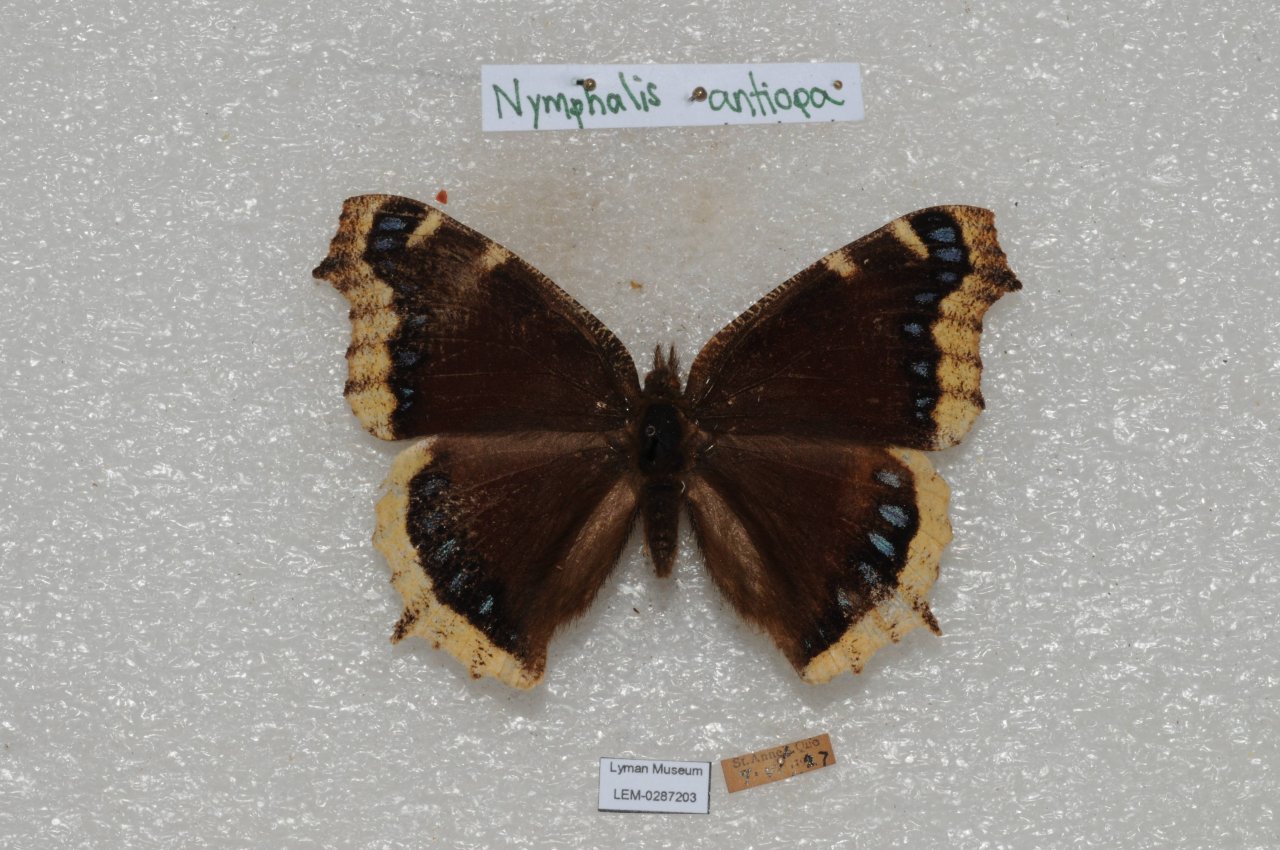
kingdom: Animalia
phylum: Arthropoda
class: Insecta
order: Lepidoptera
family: Nymphalidae
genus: Nymphalis
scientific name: Nymphalis antiopa
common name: Mourning Cloak
